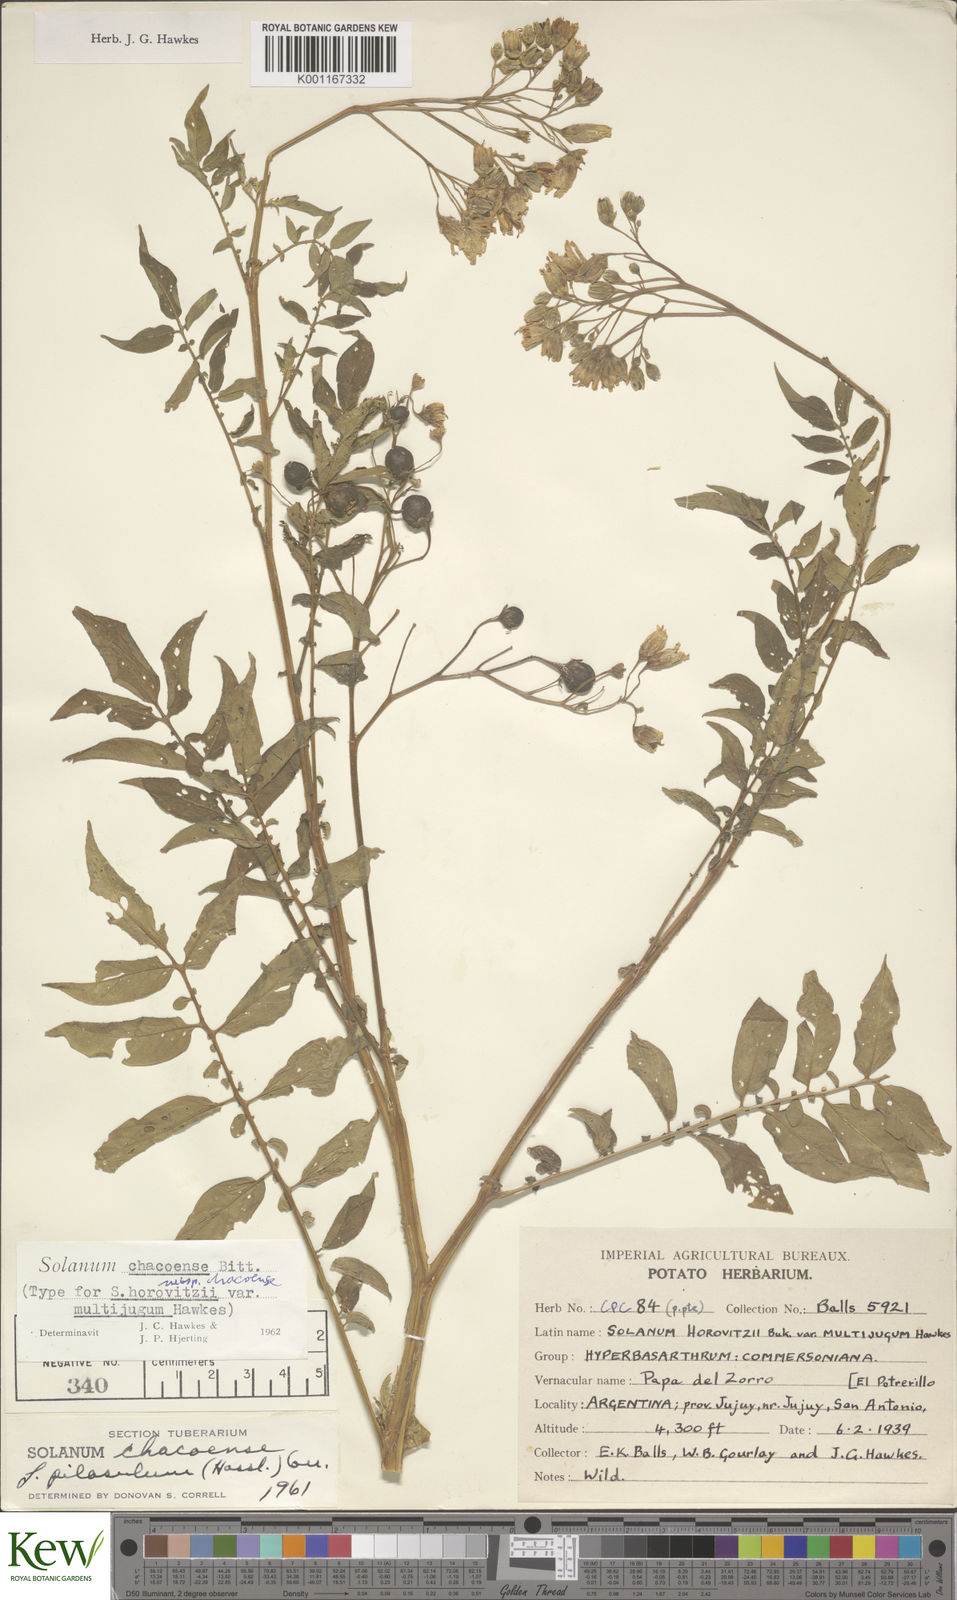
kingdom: Plantae
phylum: Tracheophyta
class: Magnoliopsida
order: Solanales
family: Solanaceae
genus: Solanum
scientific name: Solanum chacoense
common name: Chaco potato
